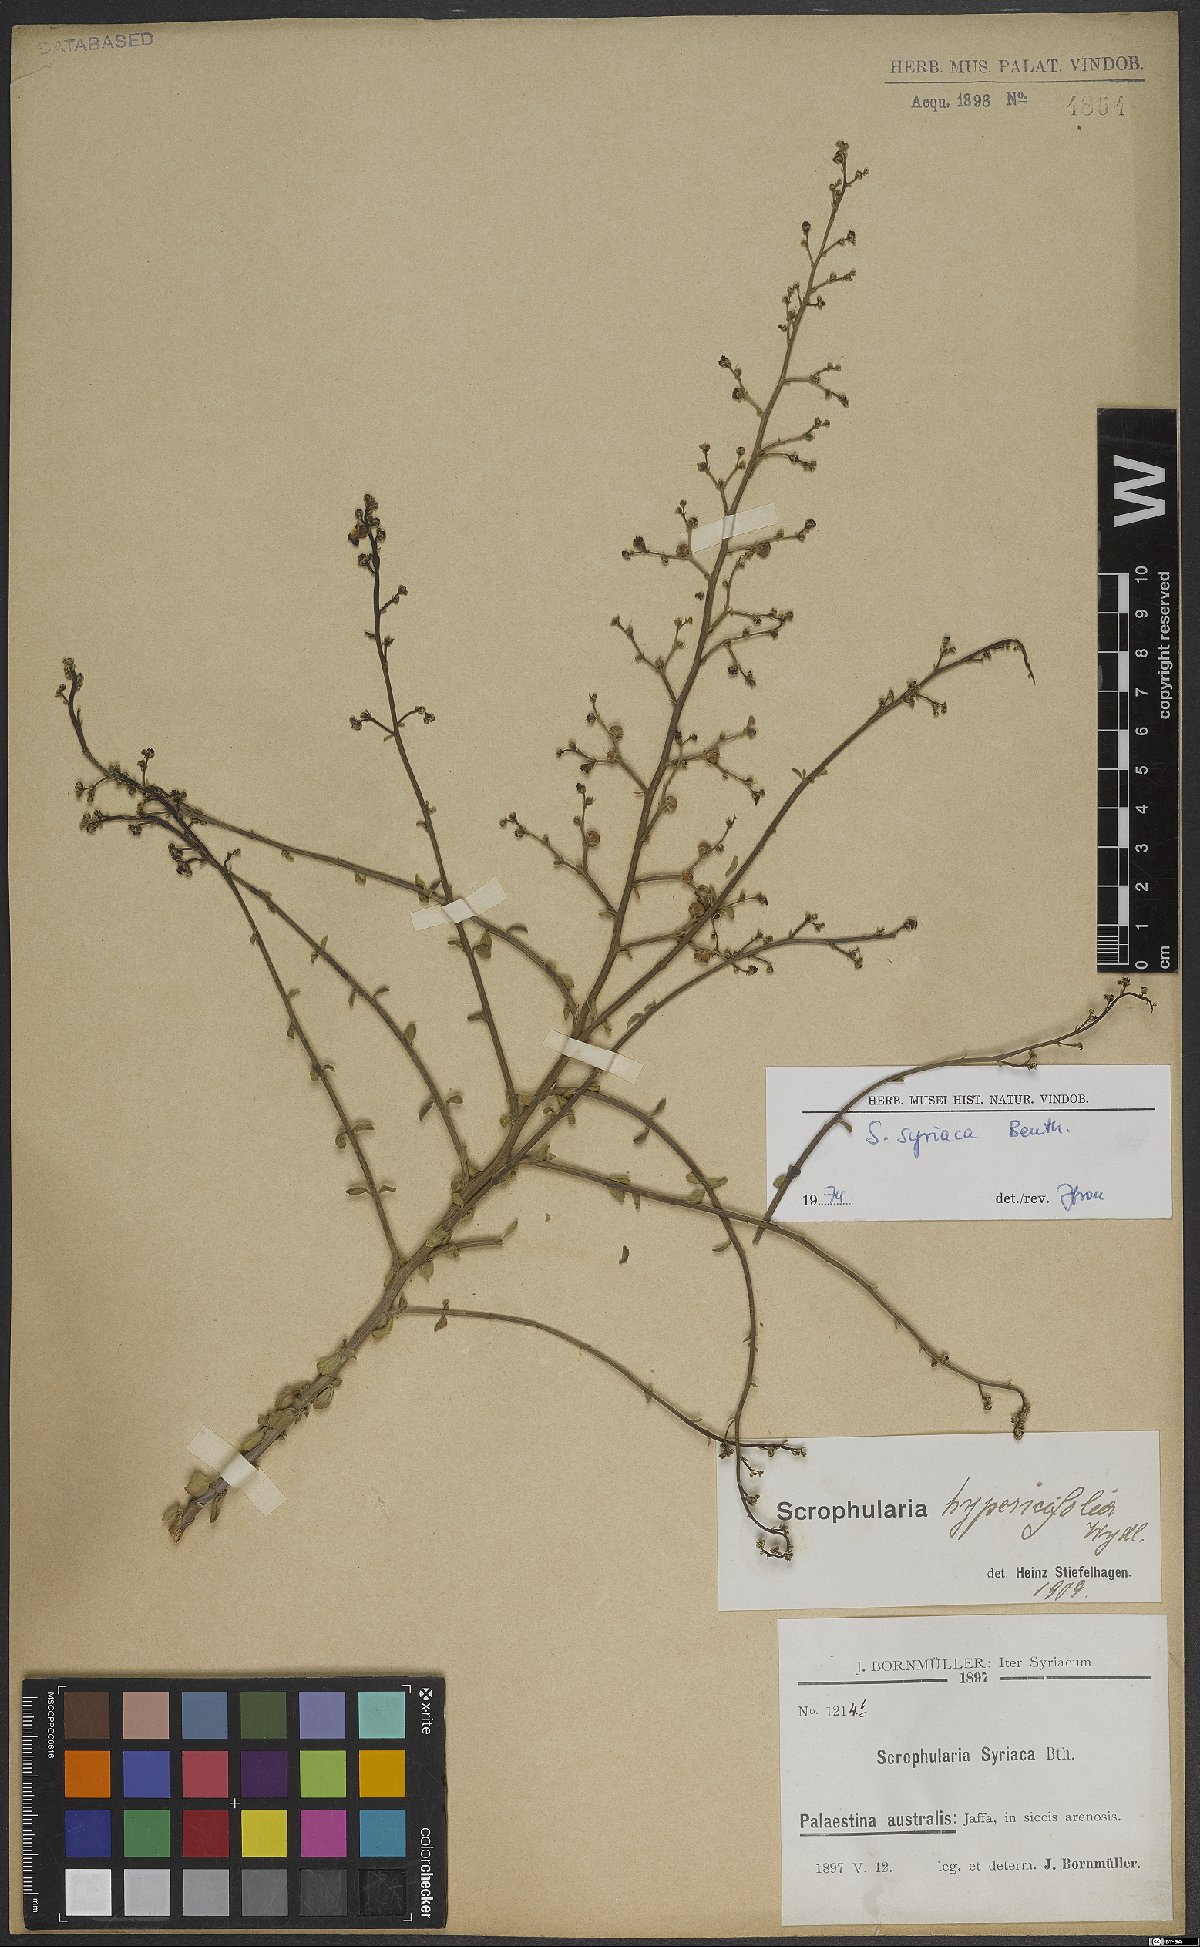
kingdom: Plantae
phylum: Tracheophyta
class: Magnoliopsida
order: Lamiales
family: Scrophulariaceae
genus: Scrophularia
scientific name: Scrophularia hypericifolia
